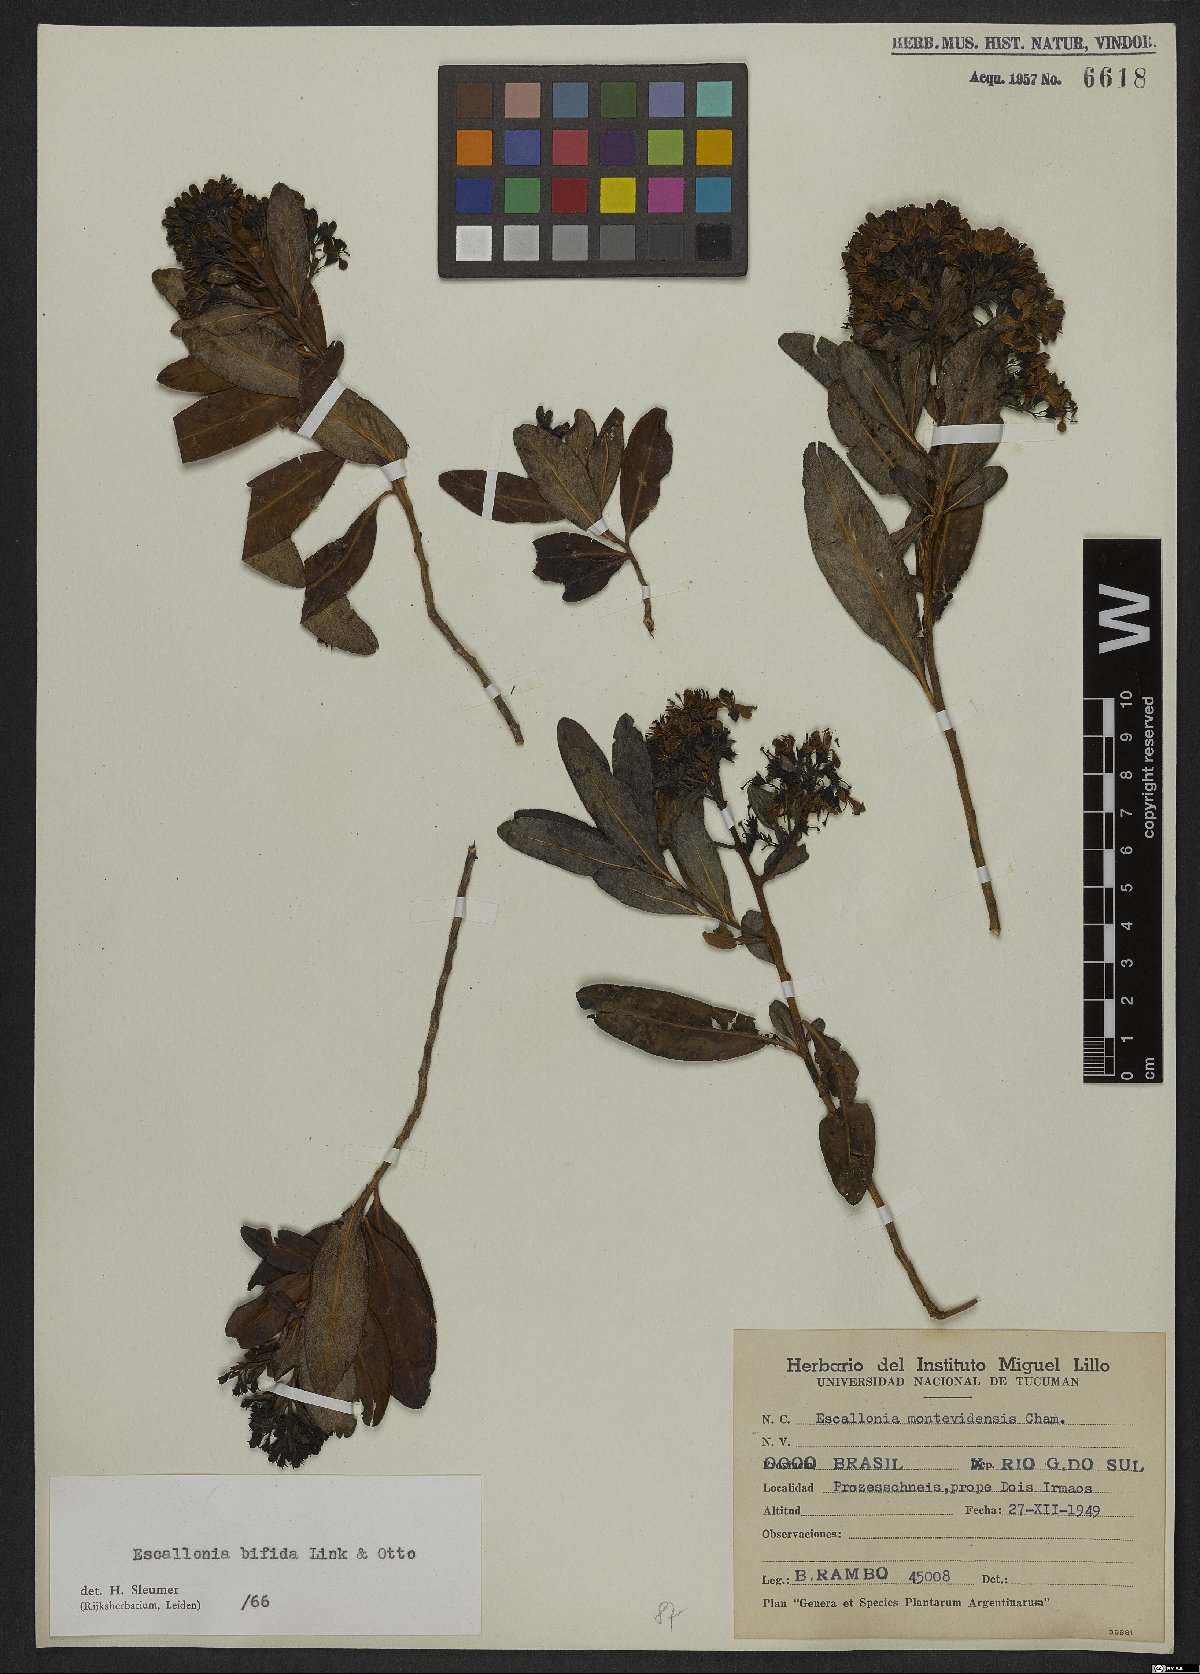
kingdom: Plantae
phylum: Tracheophyta
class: Magnoliopsida
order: Escalloniales
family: Escalloniaceae
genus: Escallonia
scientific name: Escallonia bifida
